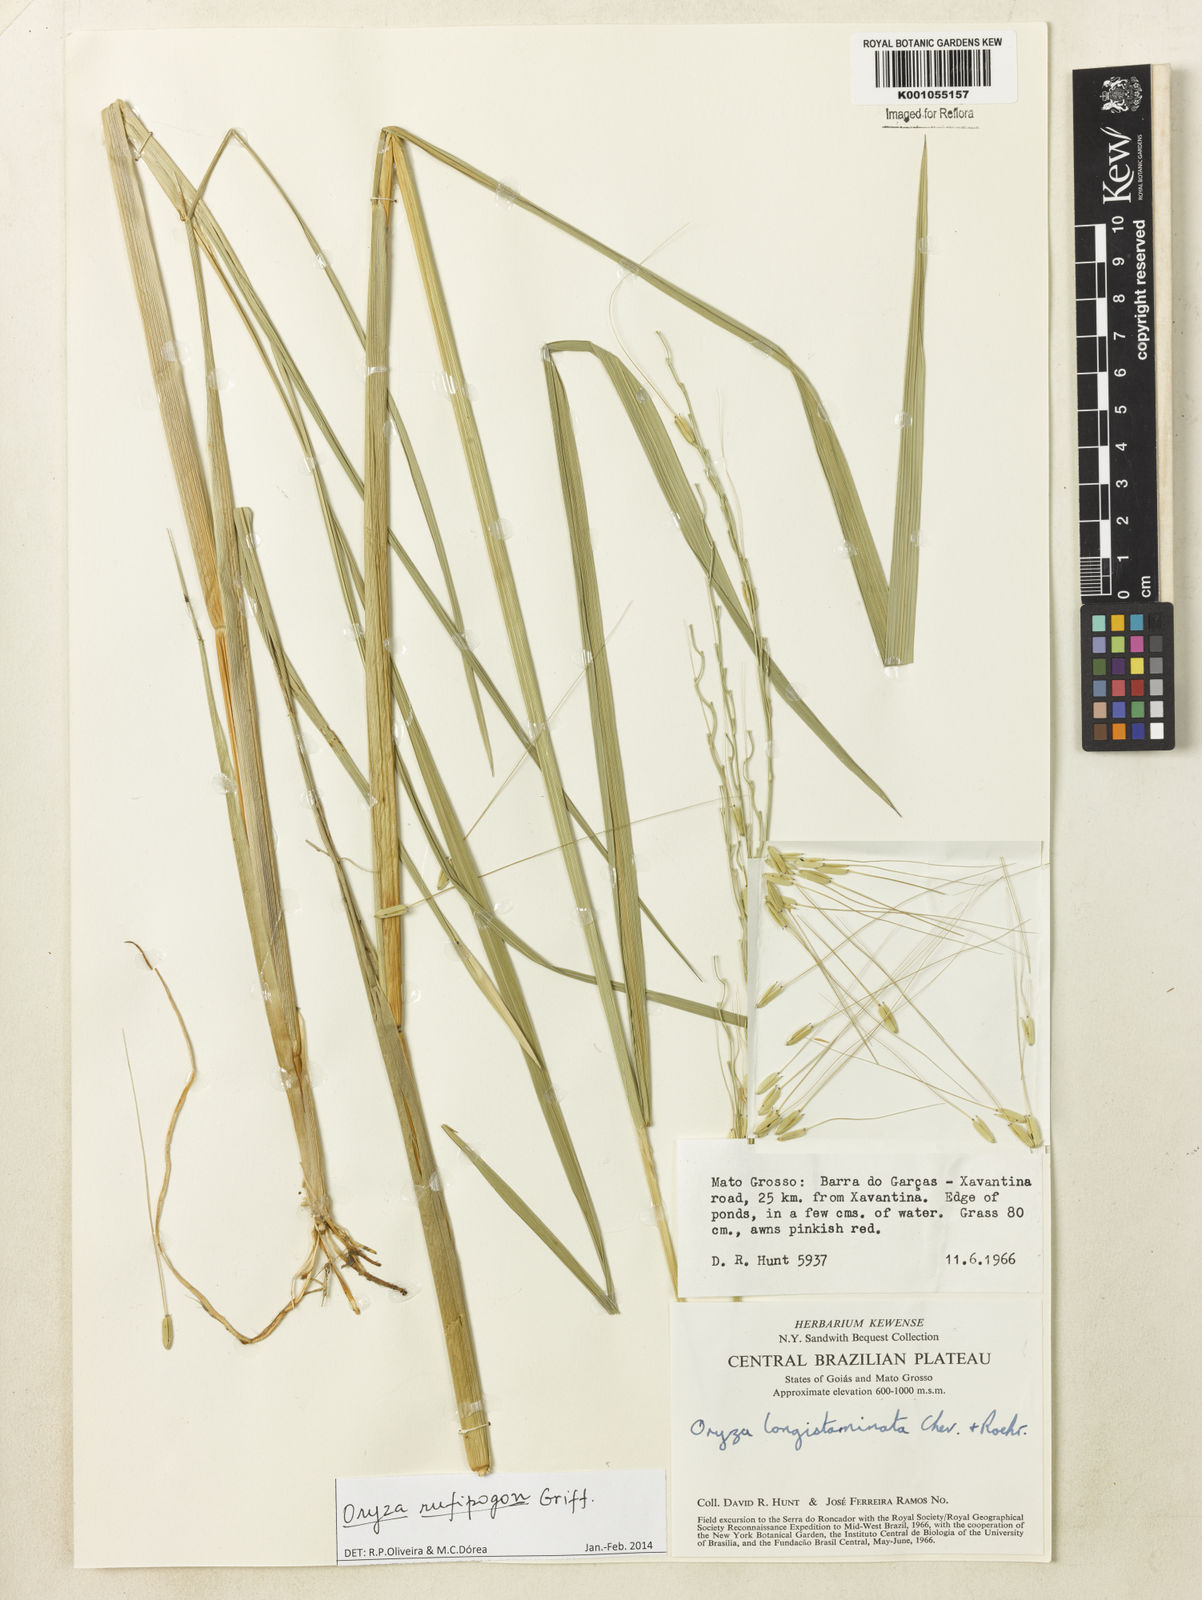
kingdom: Plantae
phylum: Tracheophyta
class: Liliopsida
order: Poales
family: Poaceae
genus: Oryza
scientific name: Oryza rufipogon
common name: Red rice
